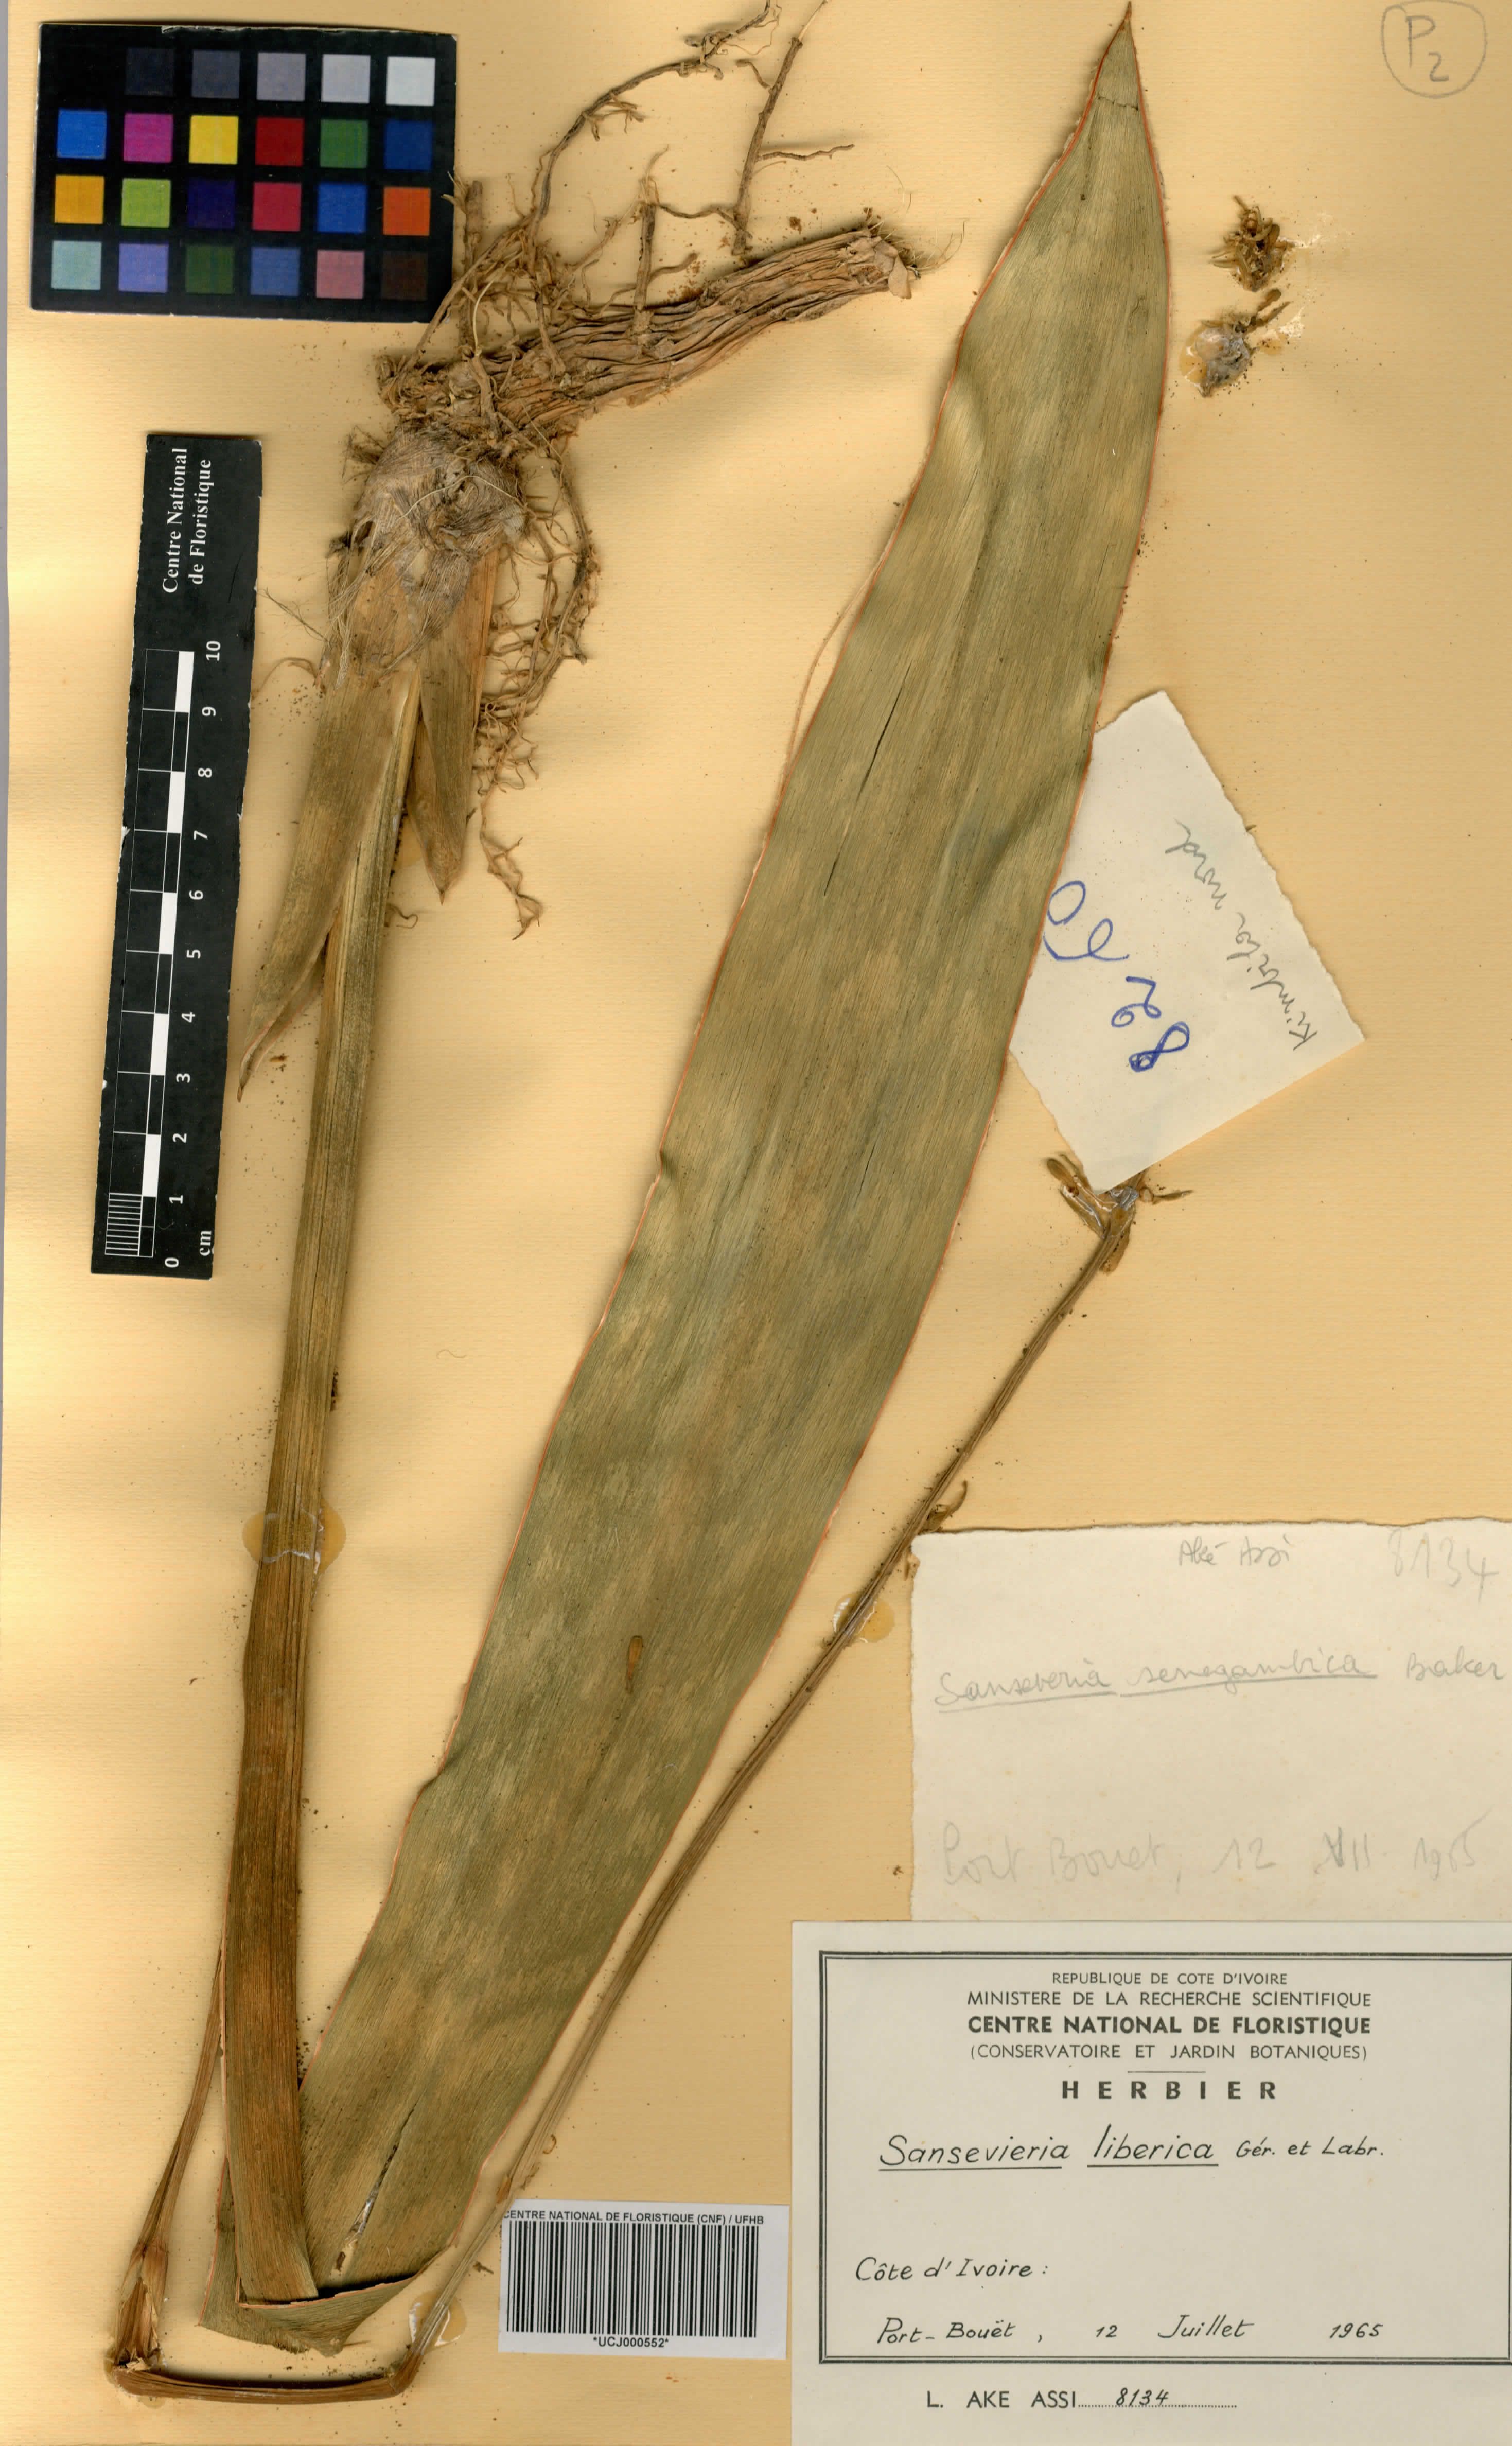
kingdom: Plantae
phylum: Tracheophyta
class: Liliopsida
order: Asparagales
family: Asparagaceae
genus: Dracaena
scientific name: Dracaena liberica
